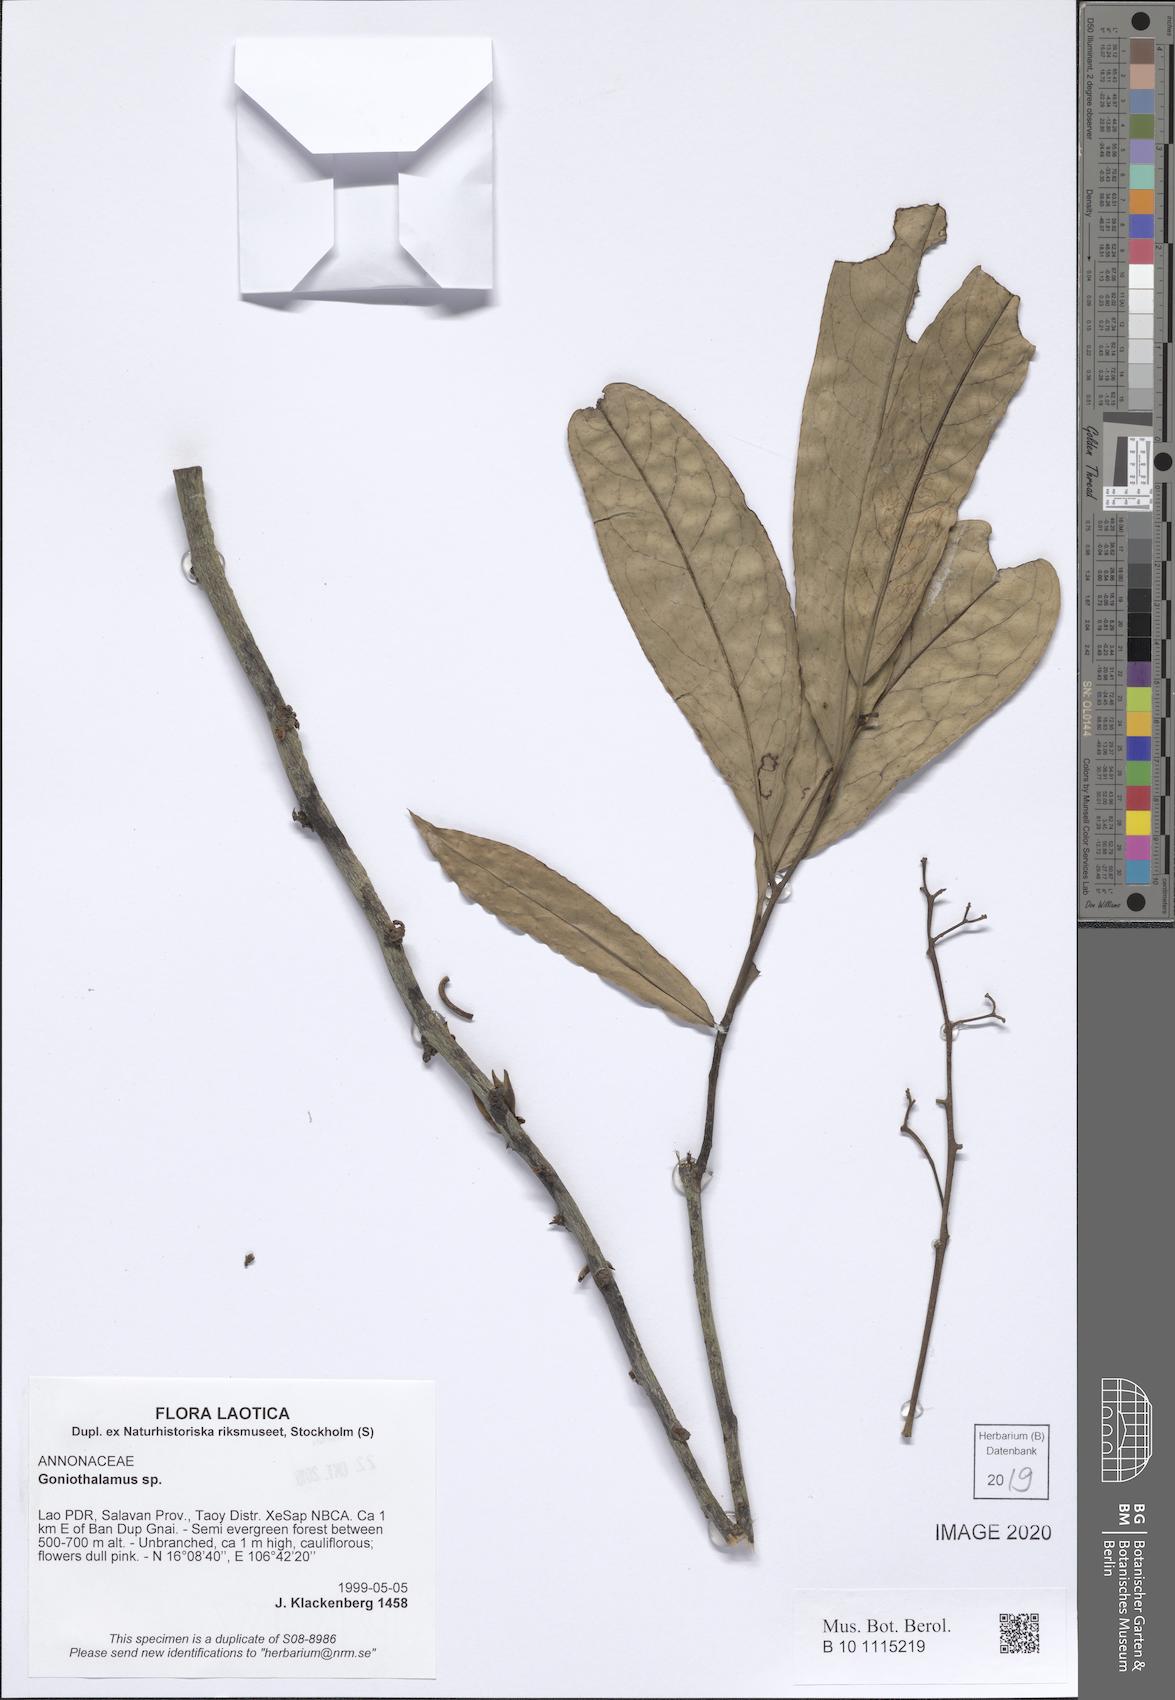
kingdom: Plantae
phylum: Tracheophyta
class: Magnoliopsida
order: Magnoliales
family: Annonaceae
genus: Goniothalamus
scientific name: Goniothalamus
